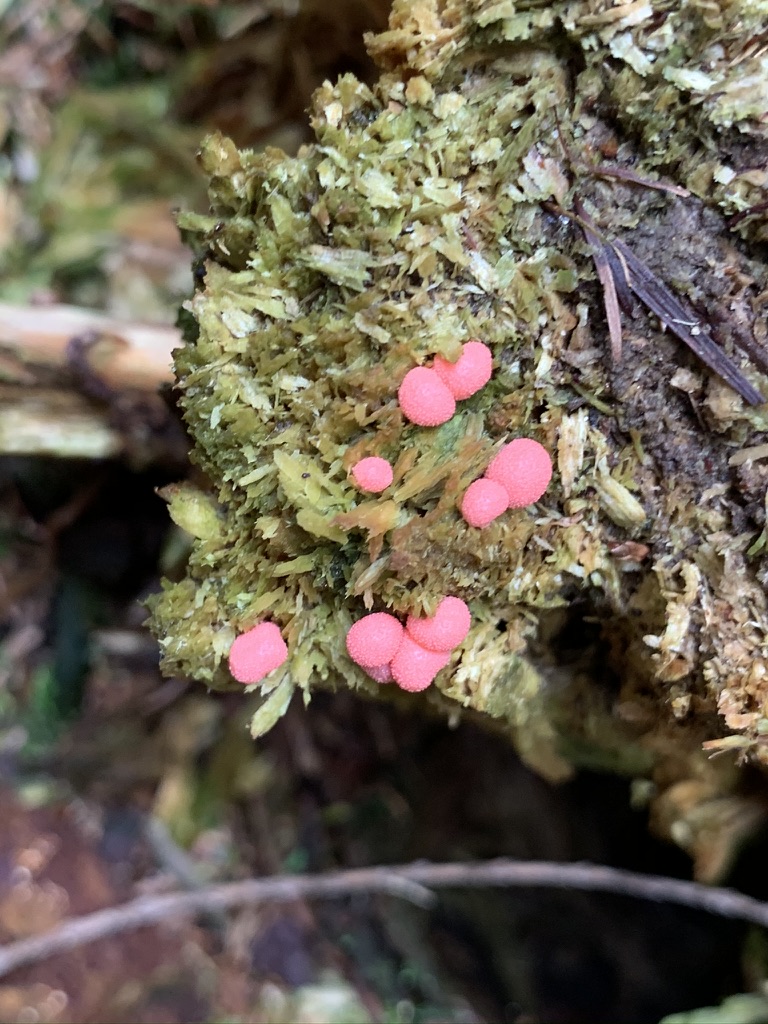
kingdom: Protozoa
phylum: Mycetozoa
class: Myxomycetes
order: Cribrariales
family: Tubiferaceae
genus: Lycogala
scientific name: Lycogala epidendrum
